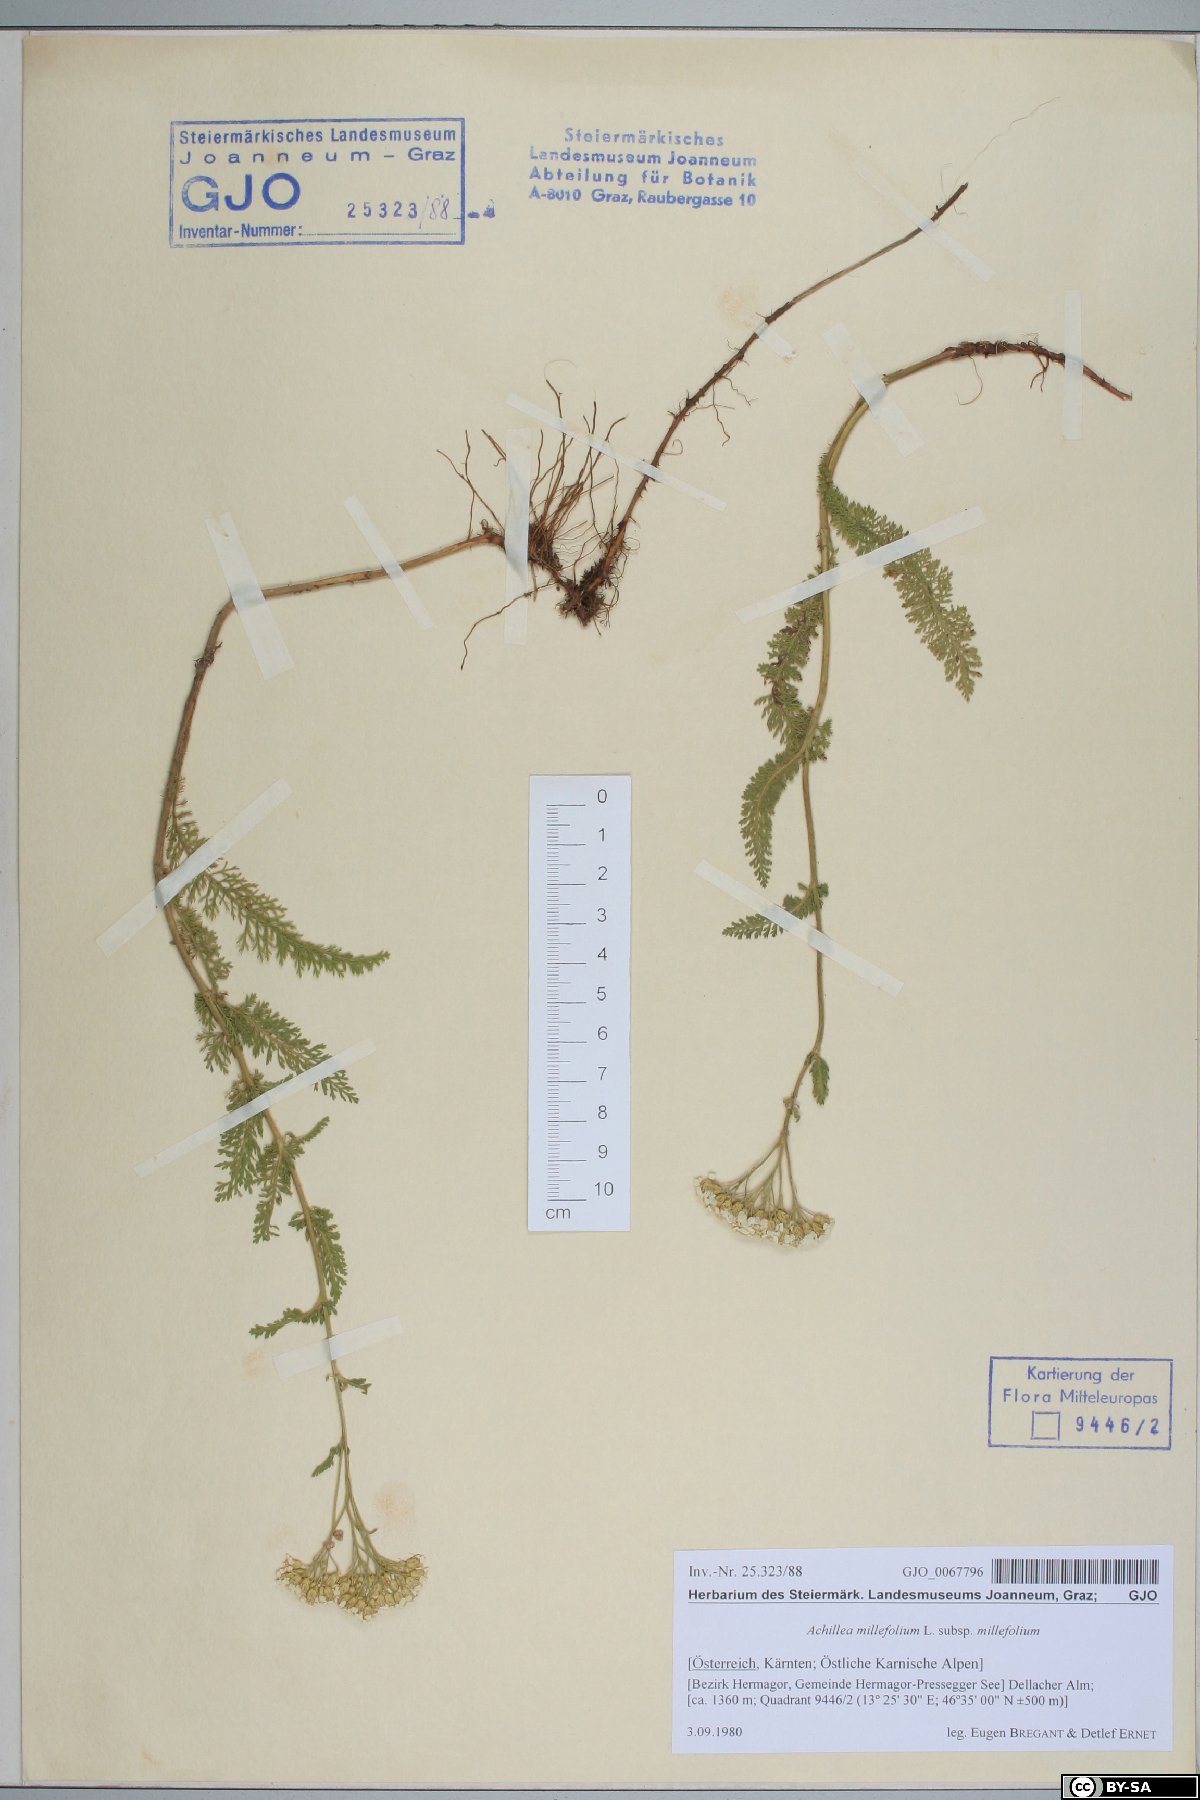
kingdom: Plantae
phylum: Tracheophyta
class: Magnoliopsida
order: Asterales
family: Asteraceae
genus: Achillea
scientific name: Achillea millefolium
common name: Yarrow
